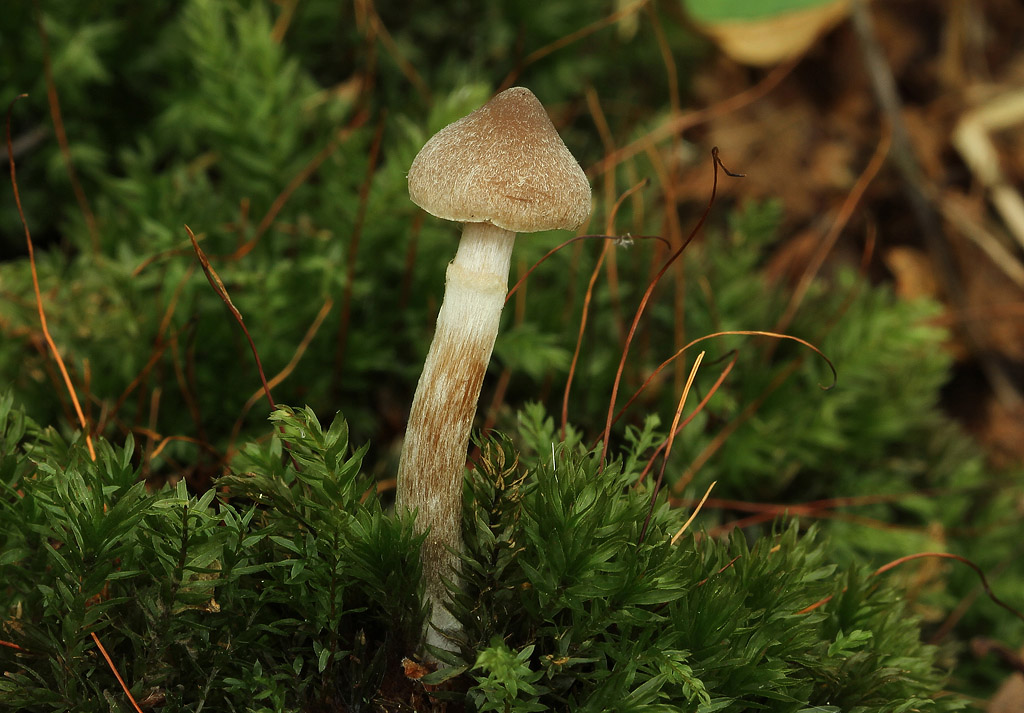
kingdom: Fungi
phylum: Basidiomycota
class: Agaricomycetes
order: Agaricales
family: Cortinariaceae
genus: Cortinarius
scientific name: Cortinarius hemitrichus
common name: hvidfnugget slørhat
